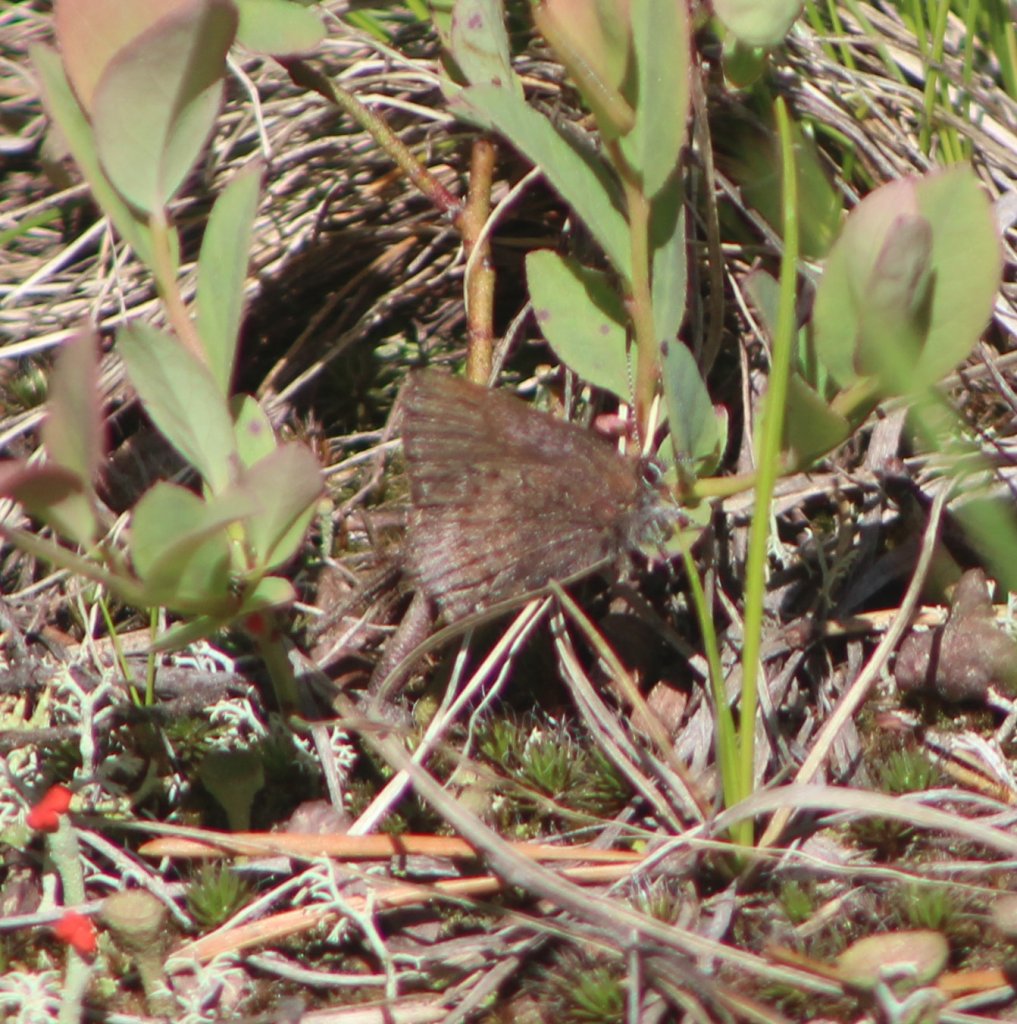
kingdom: Animalia
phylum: Arthropoda
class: Insecta
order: Lepidoptera
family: Lycaenidae
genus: Callophrys
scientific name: Callophrys polios
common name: Hoary Elfin
